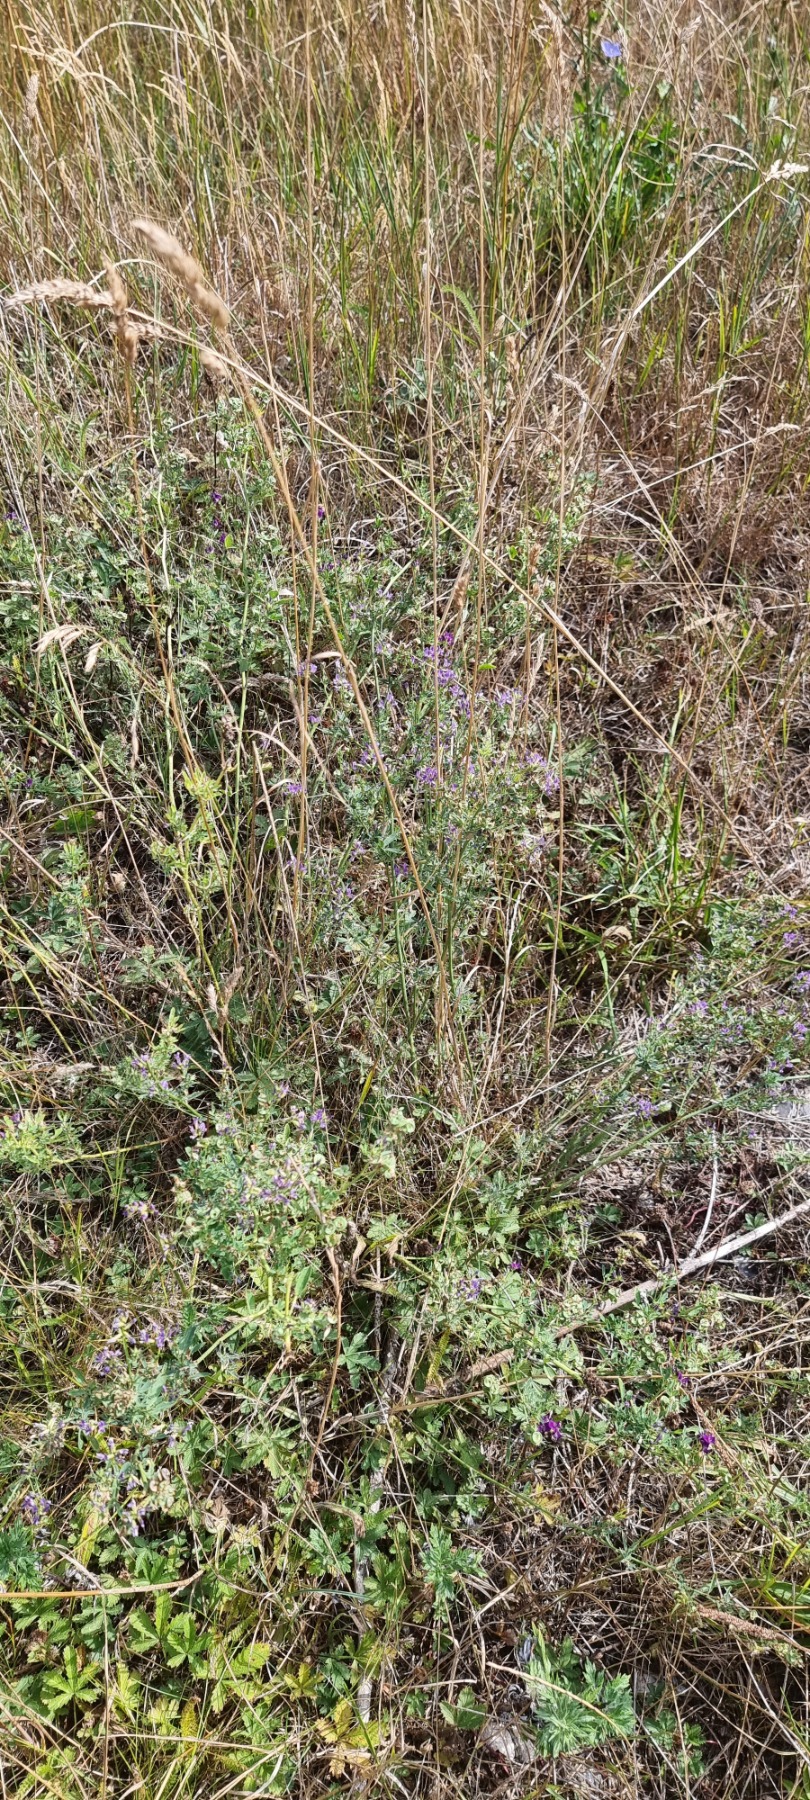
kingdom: Plantae
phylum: Tracheophyta
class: Magnoliopsida
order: Fabales
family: Fabaceae
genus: Medicago
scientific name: Medicago sativa
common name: Foderlucerne
